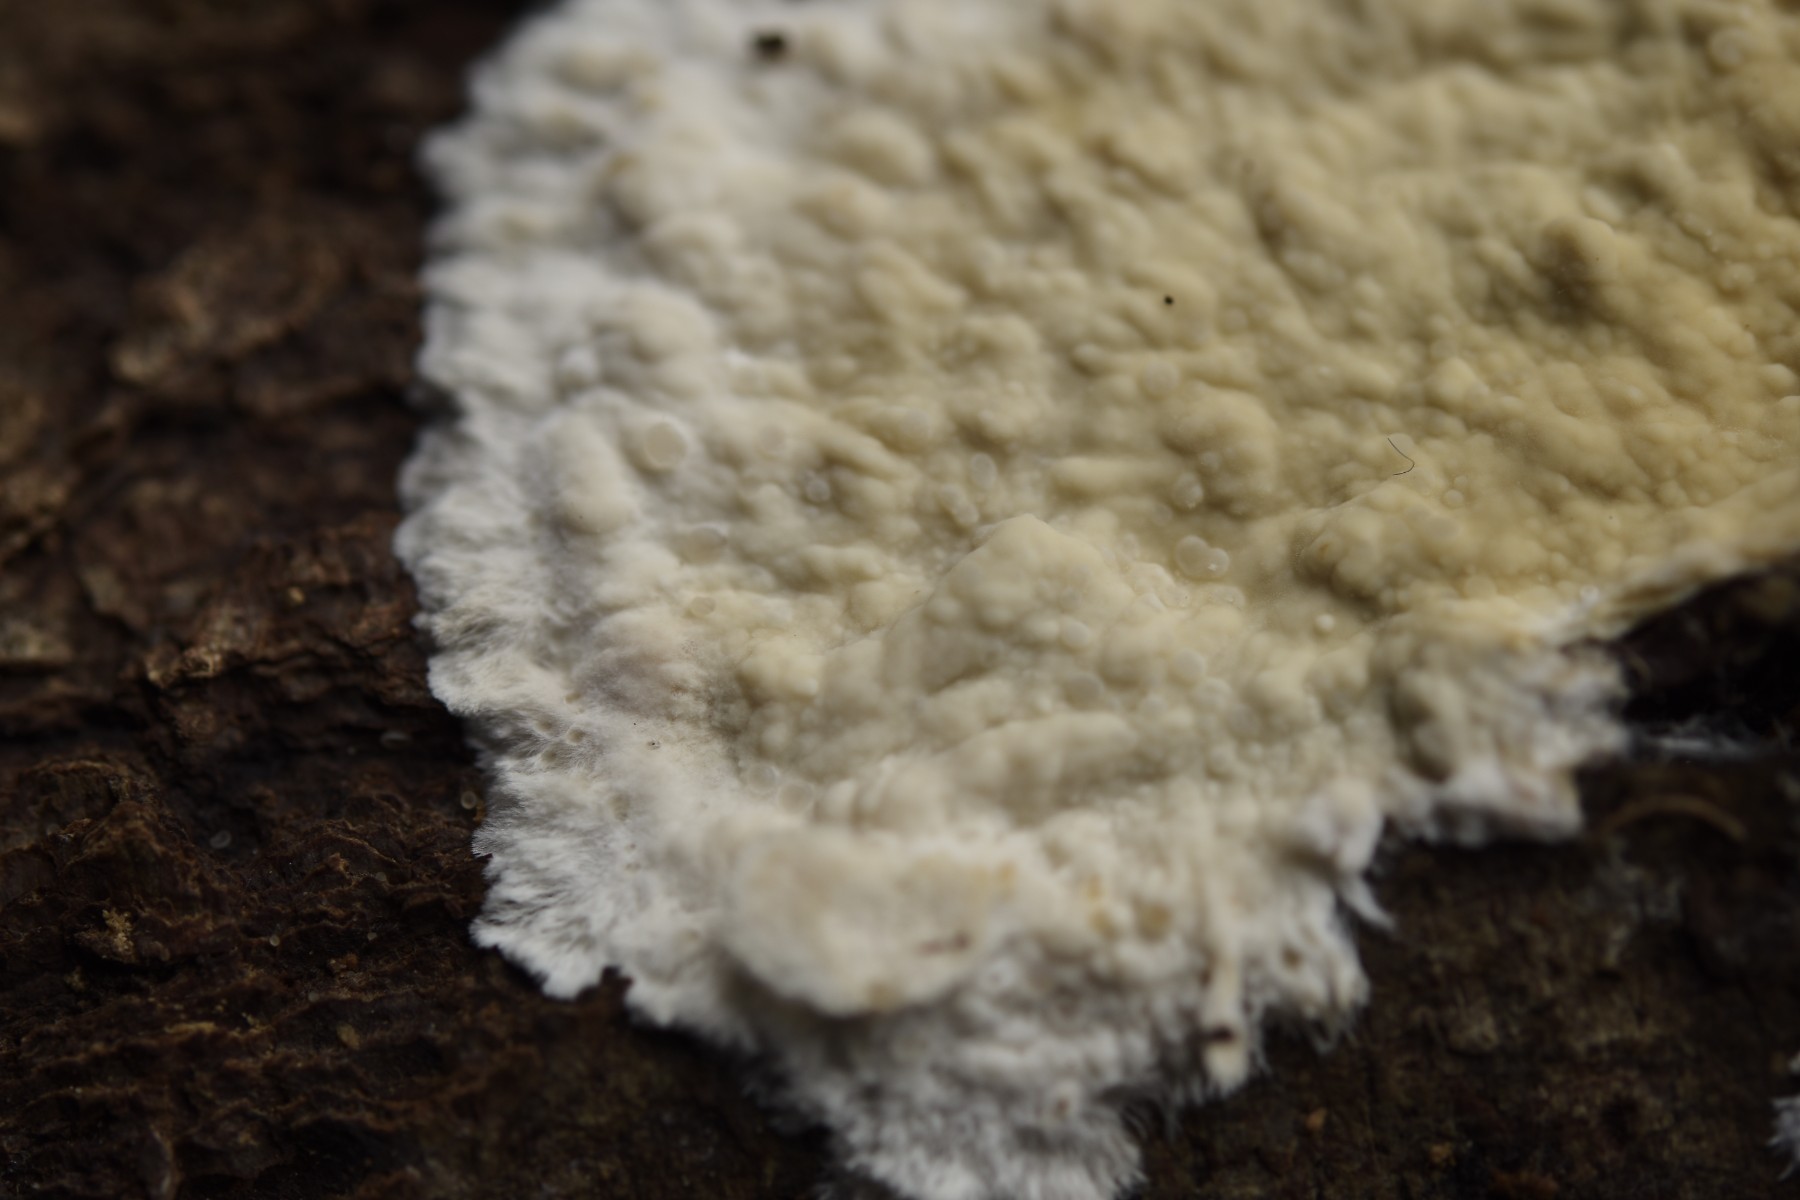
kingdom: Fungi
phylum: Basidiomycota
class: Agaricomycetes
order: Polyporales
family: Phanerochaetaceae
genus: Phanerochaete
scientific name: Phanerochaete laevis
